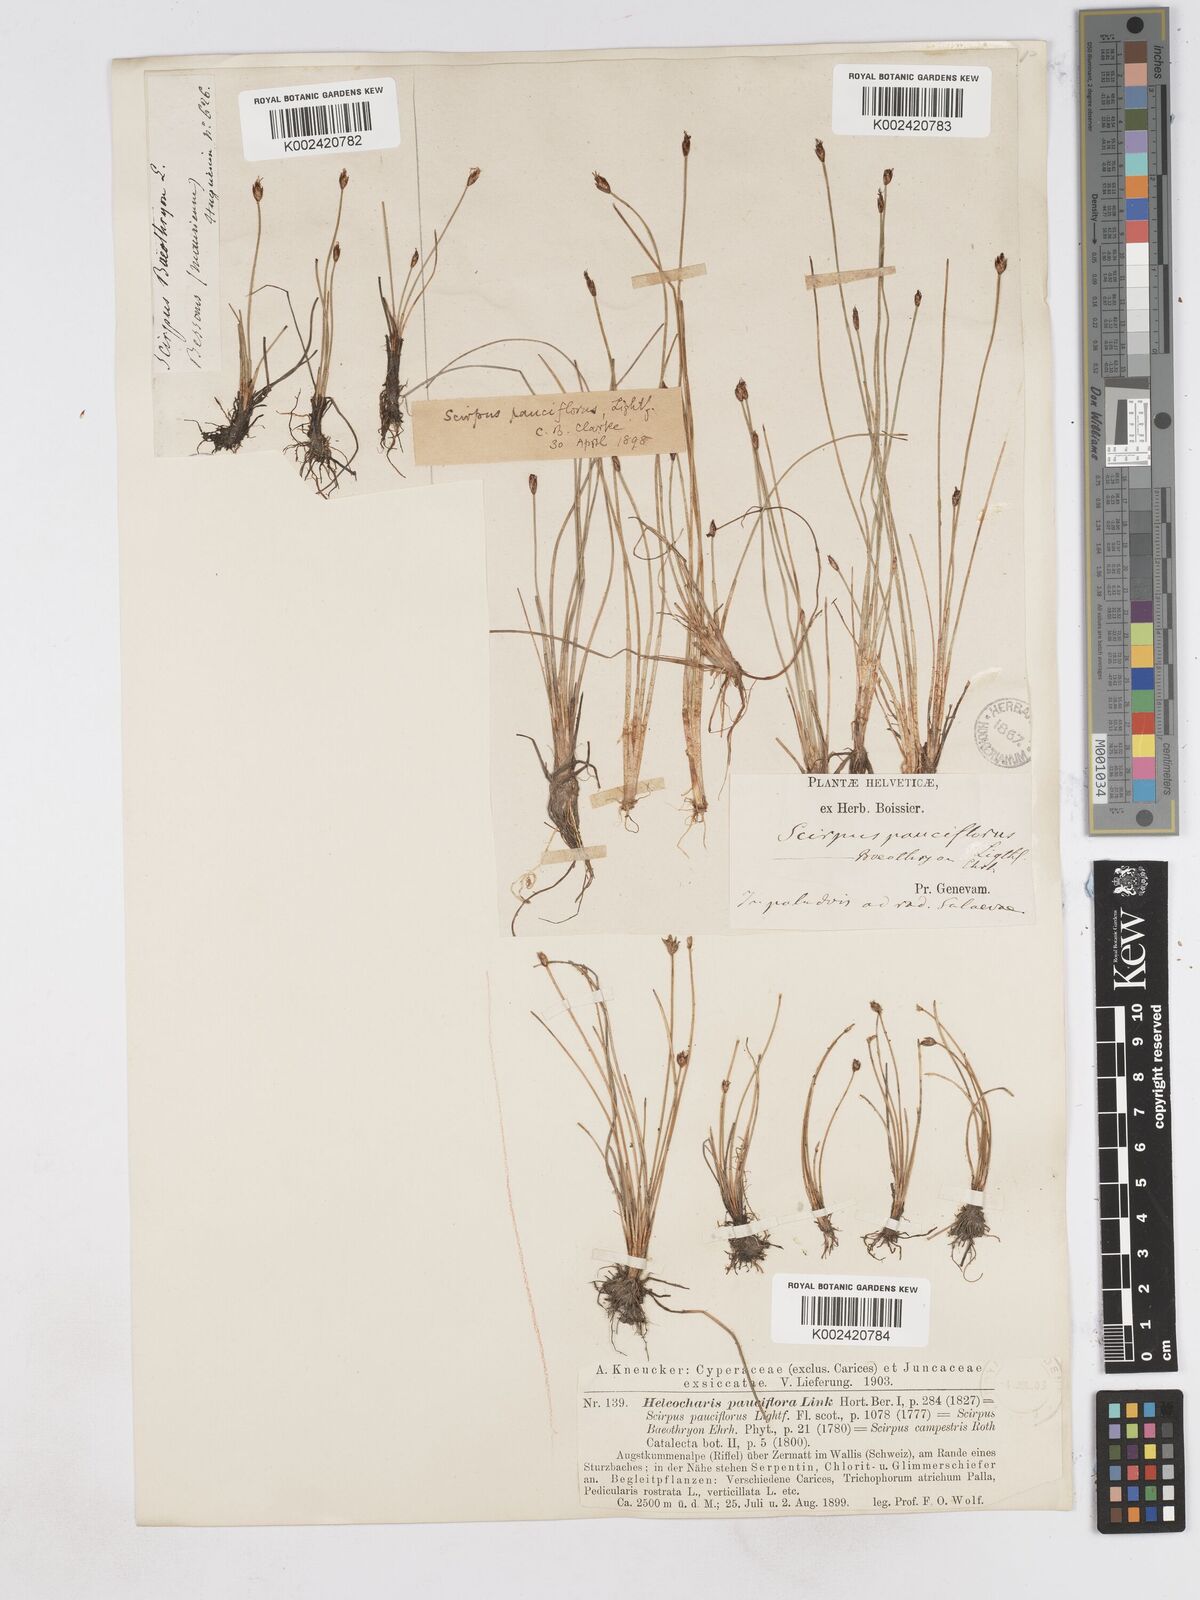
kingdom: Plantae
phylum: Tracheophyta
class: Liliopsida
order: Poales
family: Cyperaceae
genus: Eleocharis
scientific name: Eleocharis quinqueflora
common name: Few-flowered spike-rush
